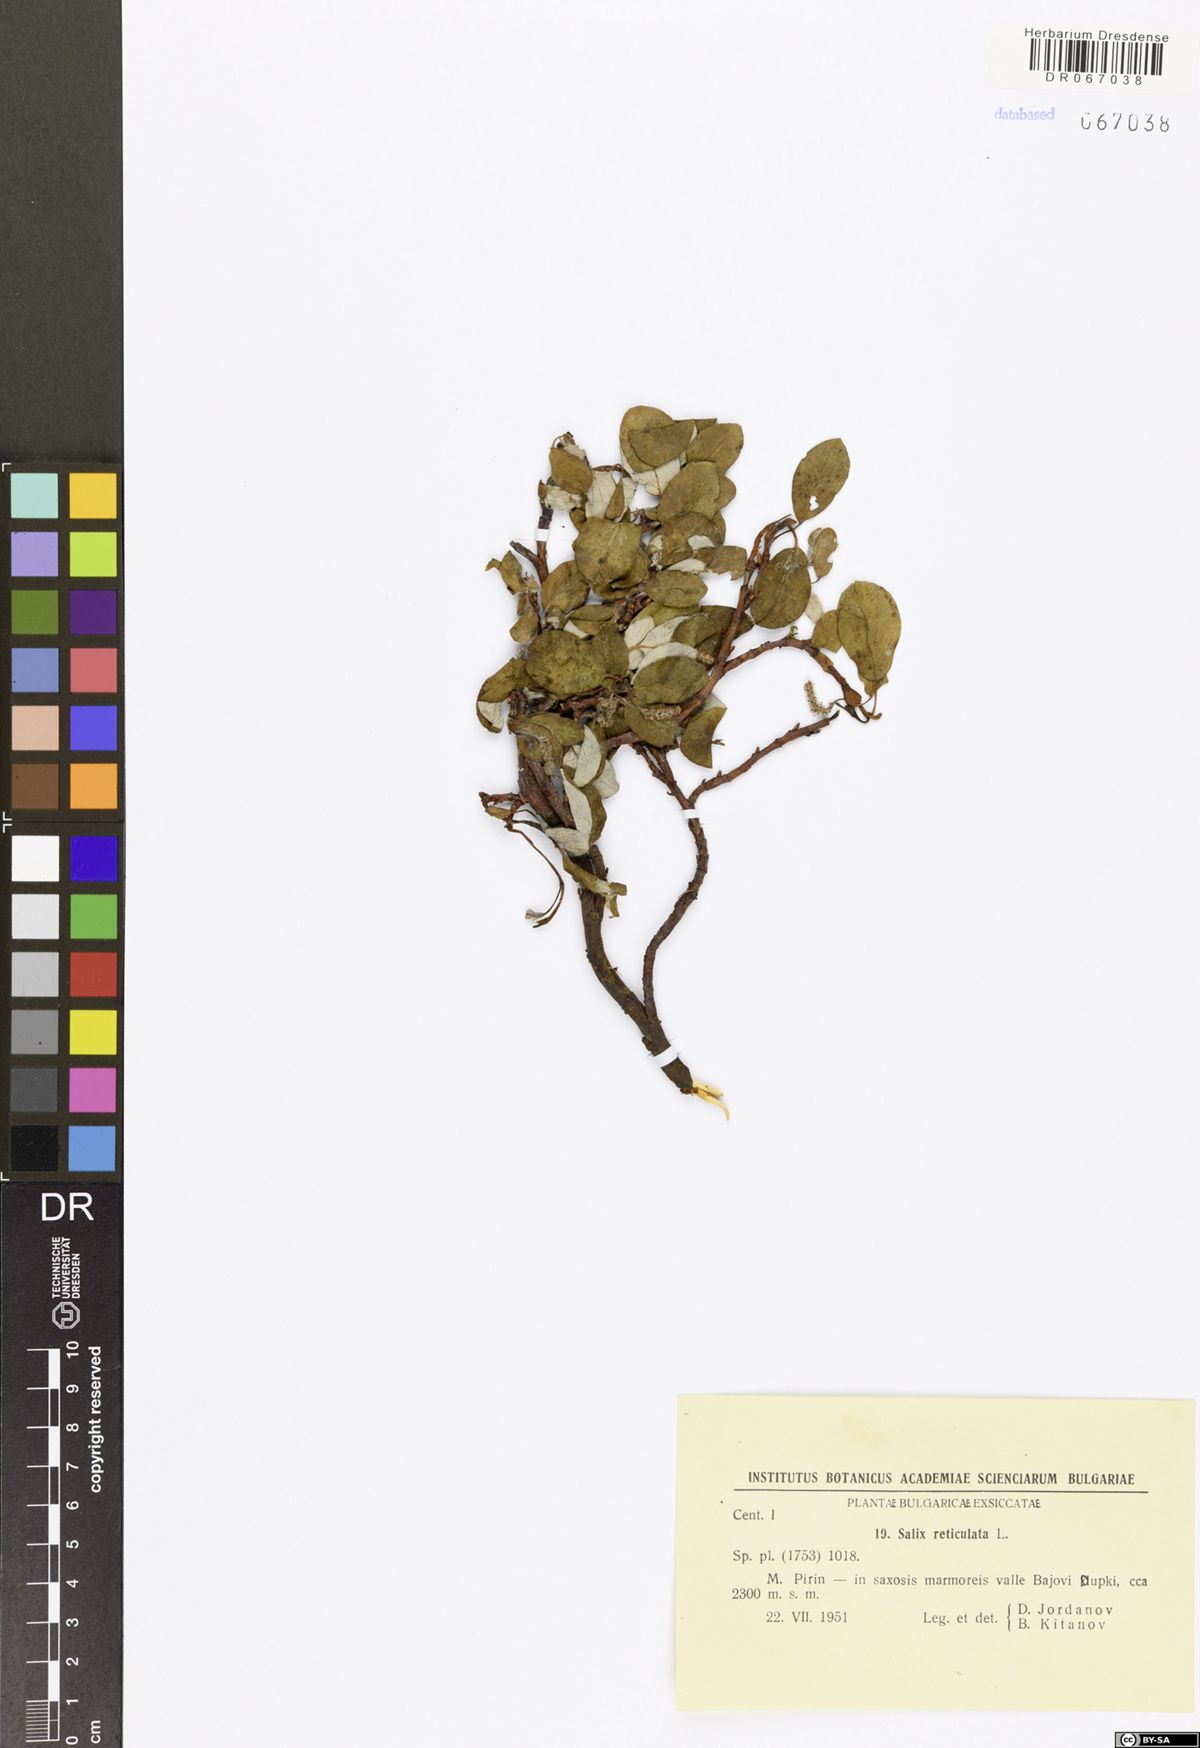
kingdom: Plantae
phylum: Tracheophyta
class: Magnoliopsida
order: Malpighiales
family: Salicaceae
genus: Salix
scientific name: Salix reticulata
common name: Net-leaved willow
